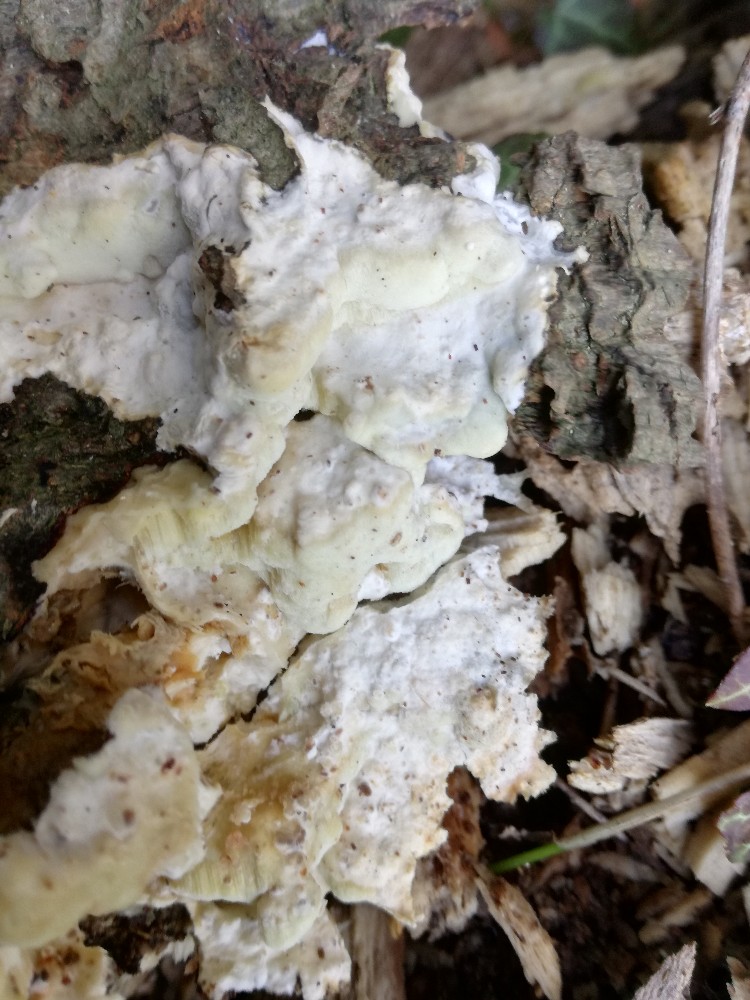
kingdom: Fungi
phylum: Basidiomycota
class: Agaricomycetes
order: Polyporales
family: Irpicaceae
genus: Gloeoporus
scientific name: Gloeoporus pannocinctus
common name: grøngul foldporesvamp
